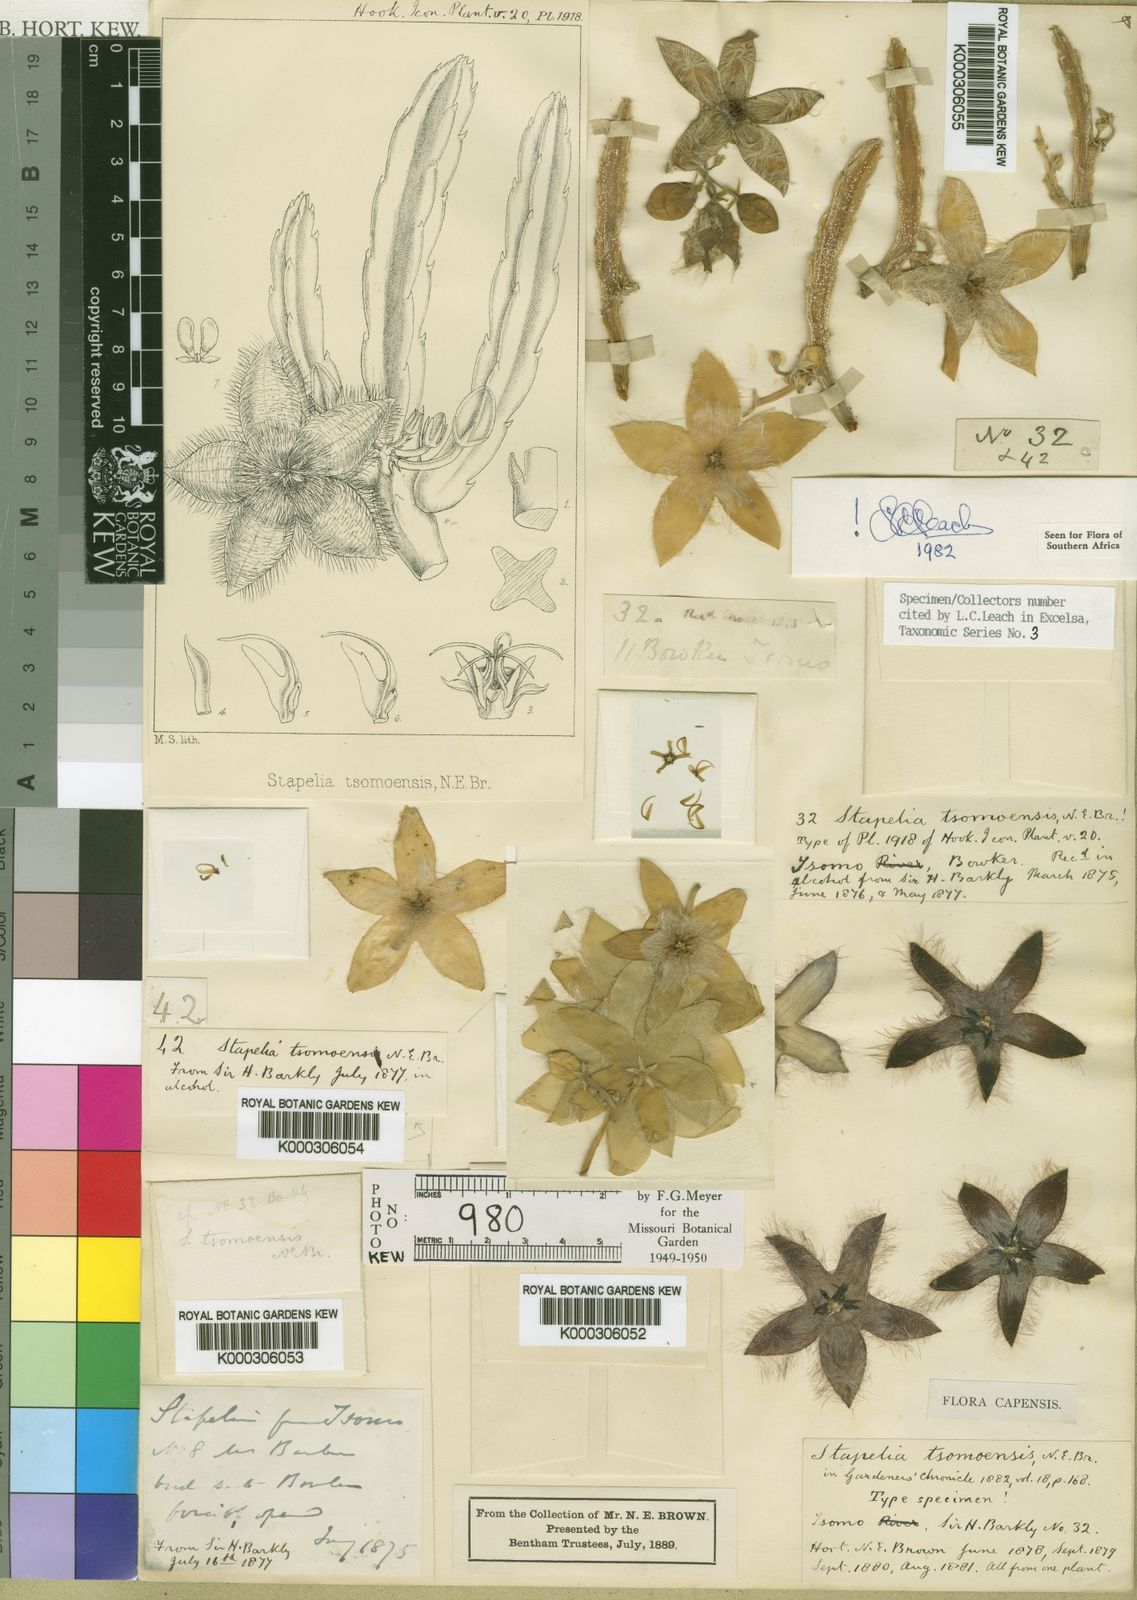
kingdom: Plantae
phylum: Tracheophyta
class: Magnoliopsida
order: Gentianales
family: Apocynaceae
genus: Ceropegia
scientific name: Ceropegia pulvinata
